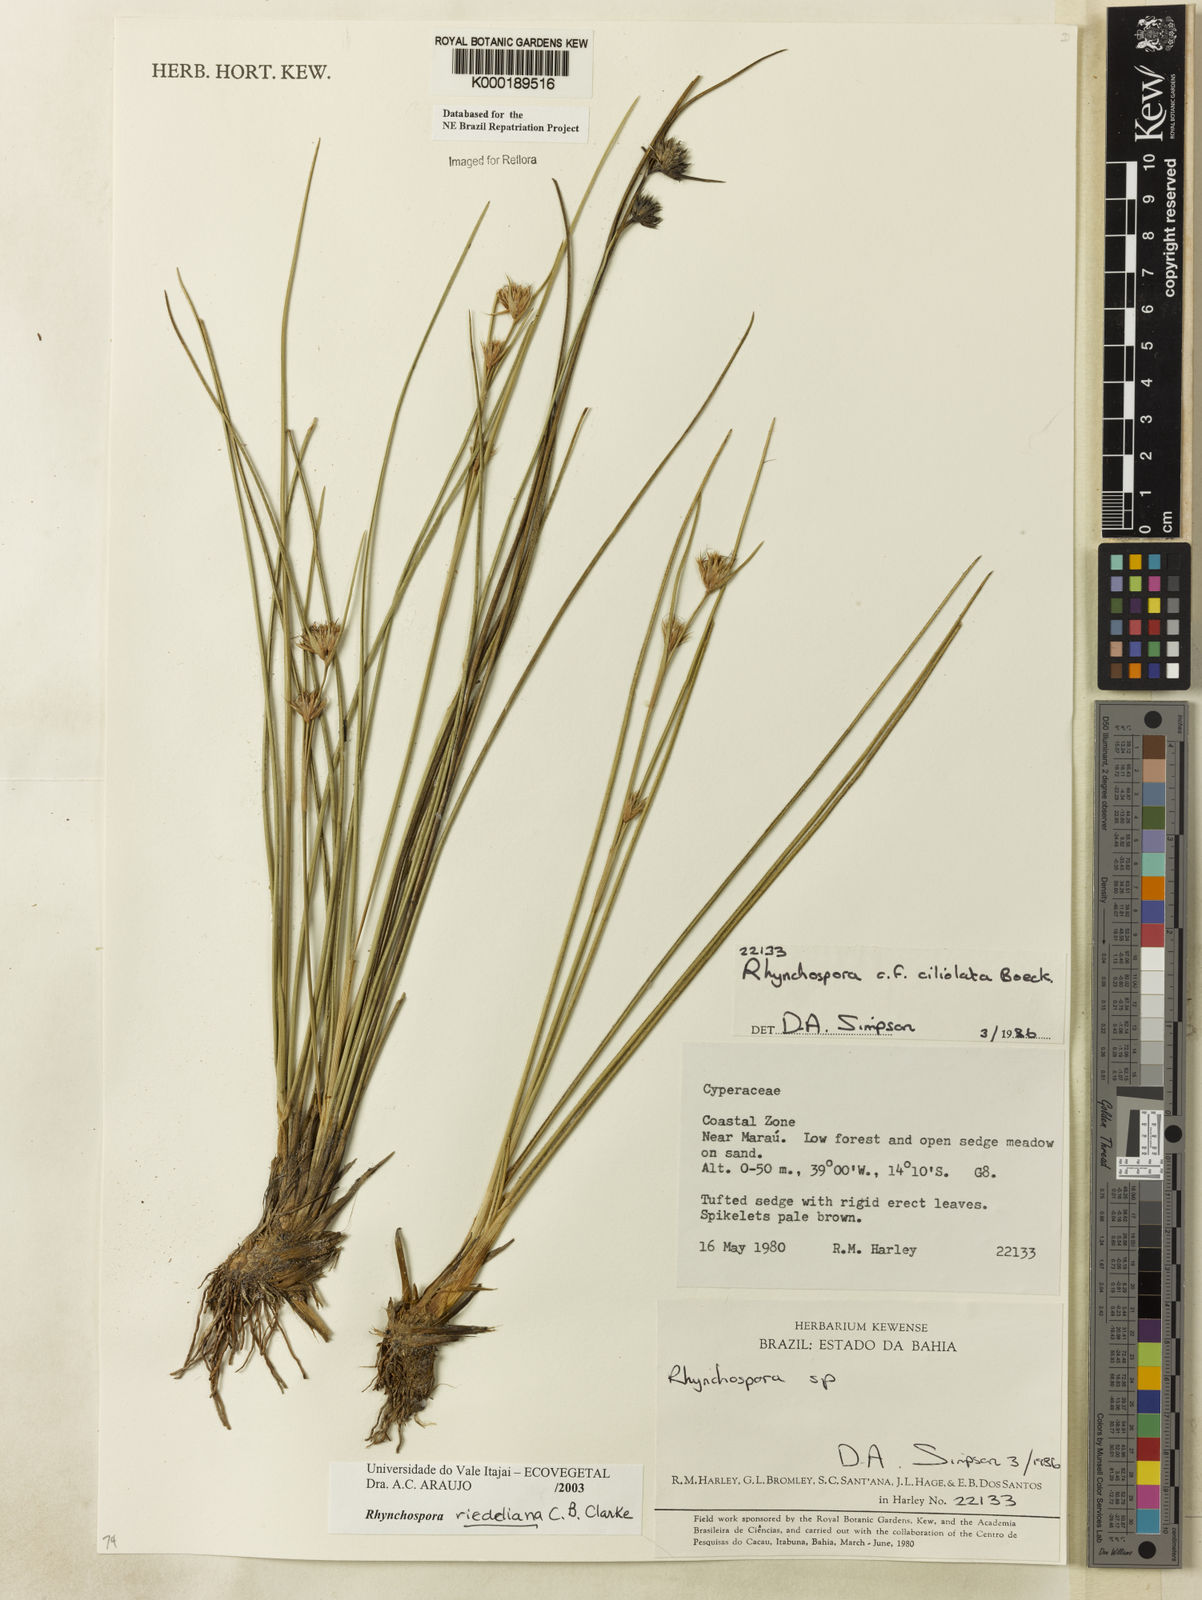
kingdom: Plantae
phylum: Tracheophyta
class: Liliopsida
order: Poales
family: Cyperaceae
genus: Rhynchospora
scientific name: Rhynchospora riedeliana
